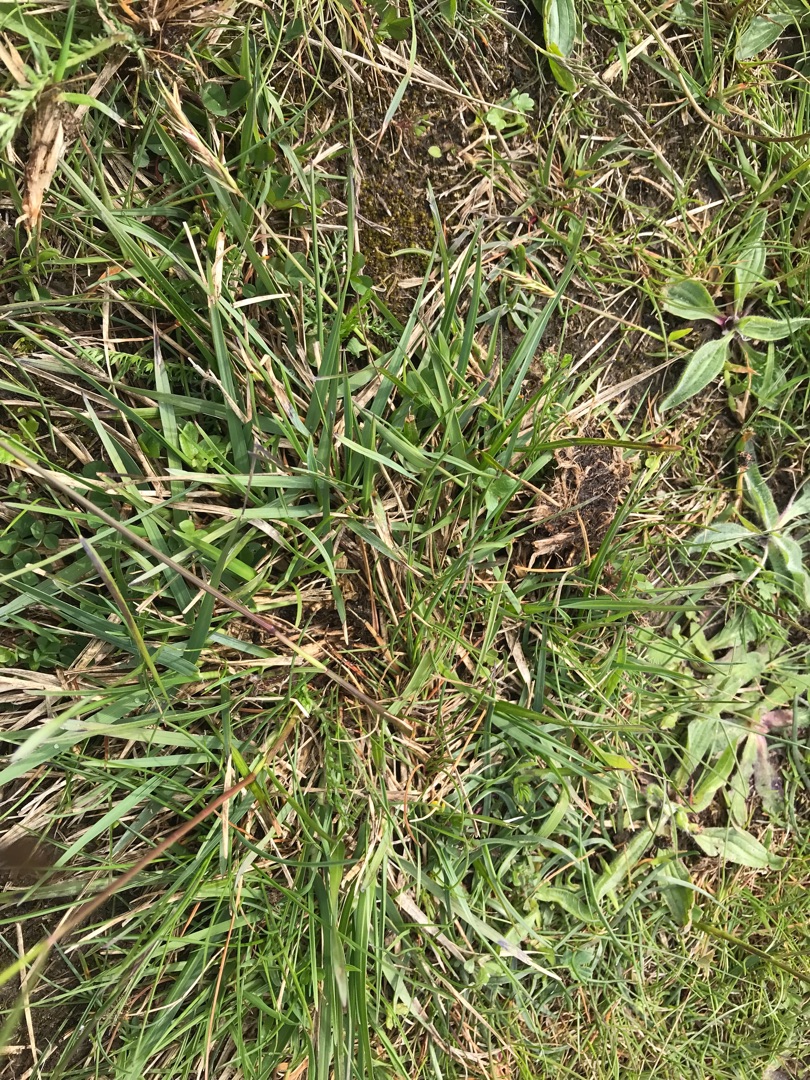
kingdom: Plantae
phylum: Tracheophyta
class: Liliopsida
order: Poales
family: Poaceae
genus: Danthonia
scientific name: Danthonia decumbens
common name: Tandbælg
